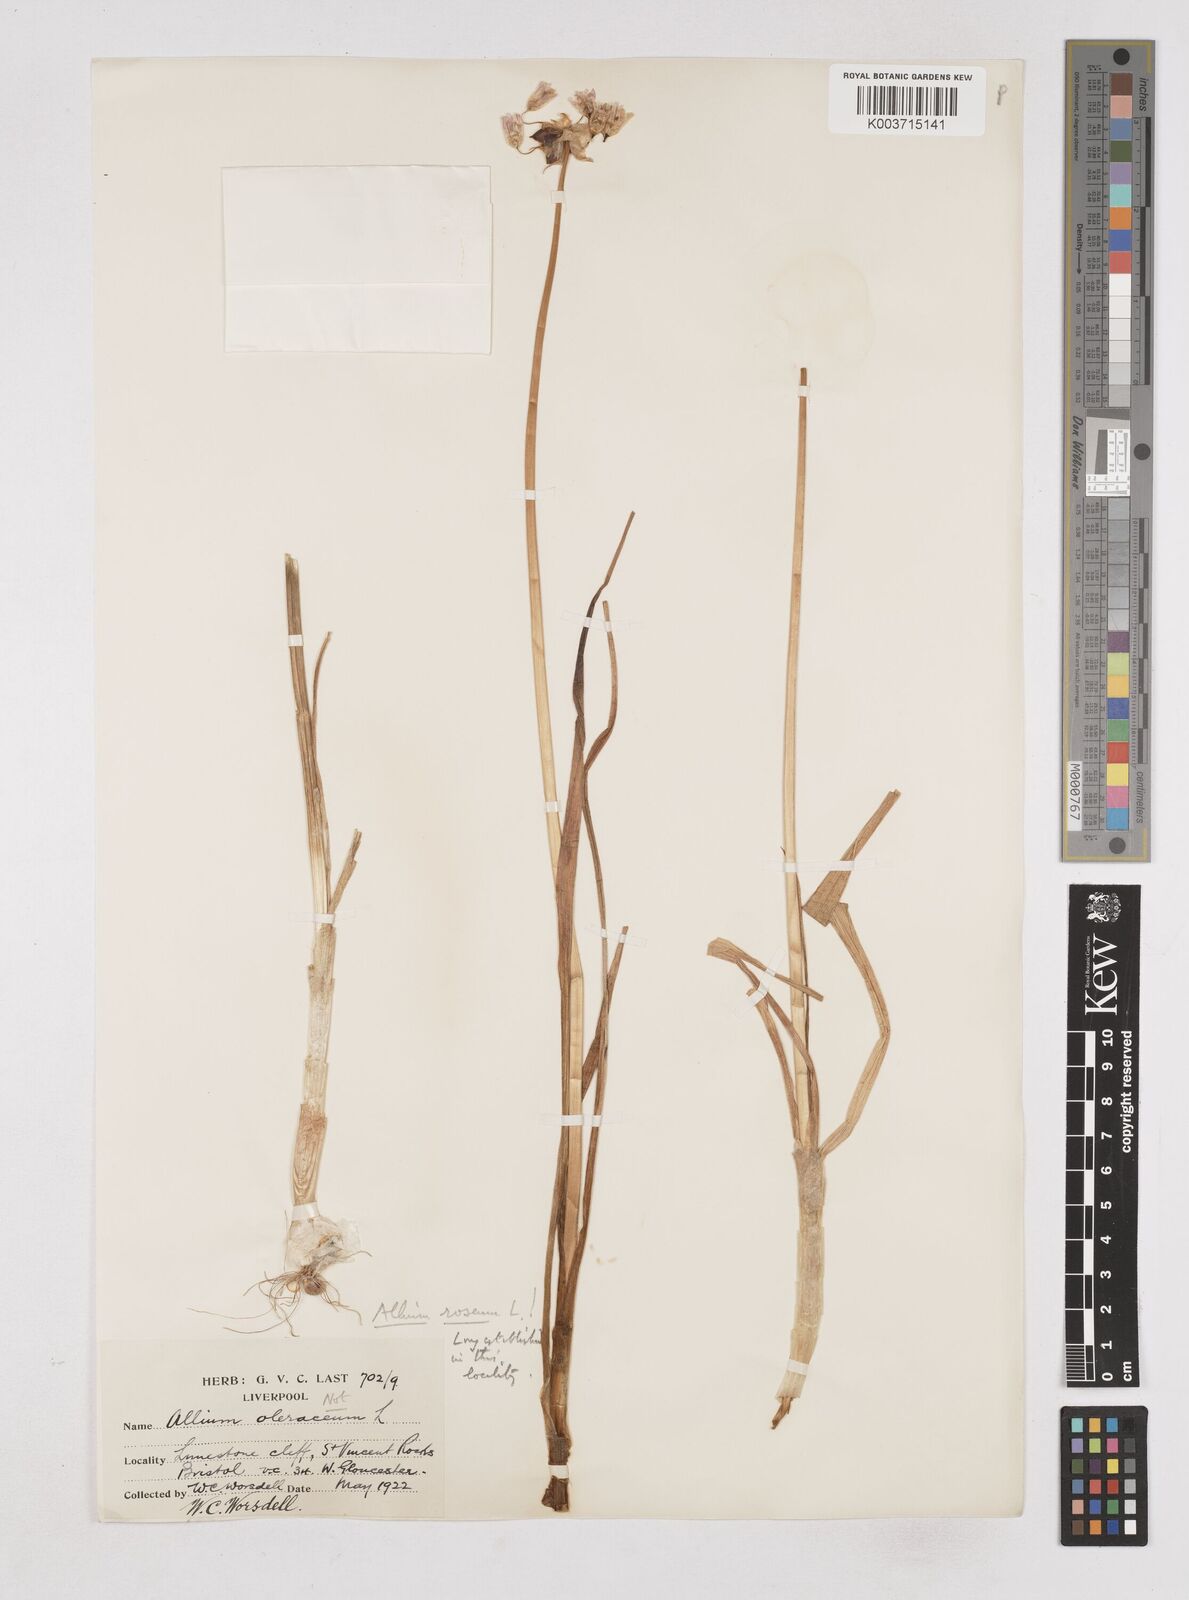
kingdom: Plantae
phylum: Tracheophyta
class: Liliopsida
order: Asparagales
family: Amaryllidaceae
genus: Allium
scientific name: Allium roseum
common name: Rosy garlic
